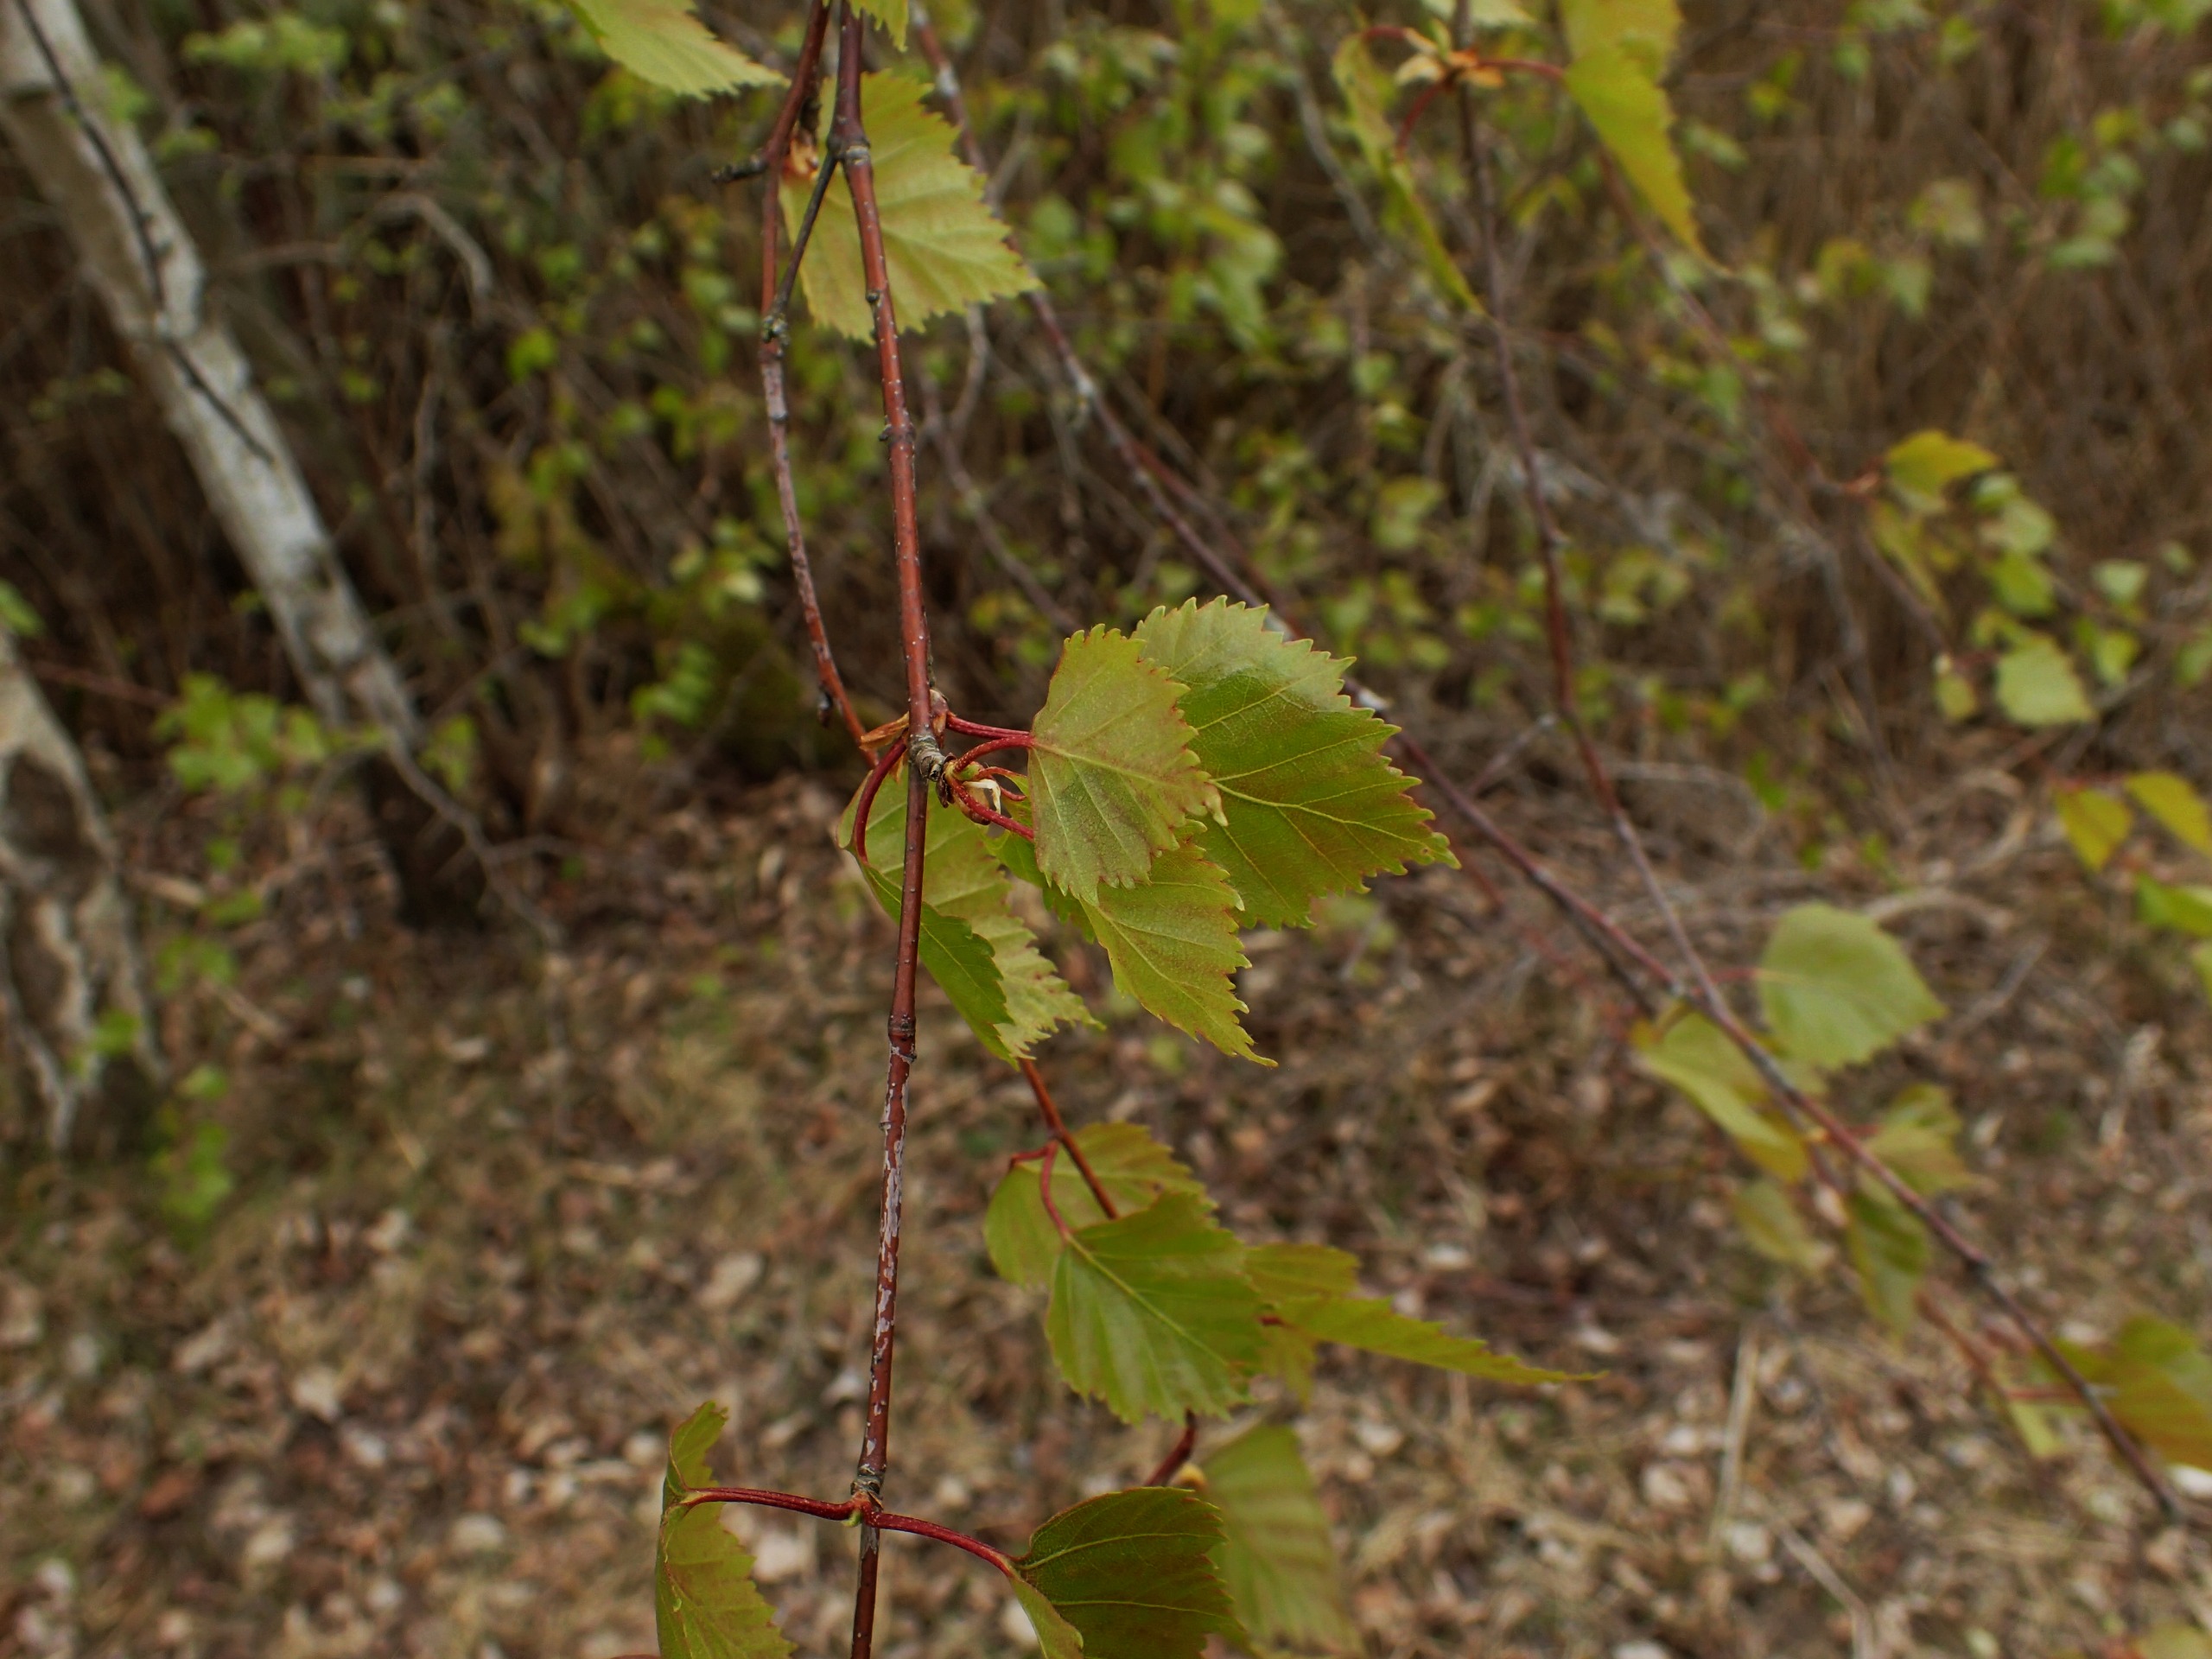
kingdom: Plantae
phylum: Tracheophyta
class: Magnoliopsida
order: Fagales
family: Betulaceae
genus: Betula
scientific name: Betula pendula
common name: Vorte-birk
